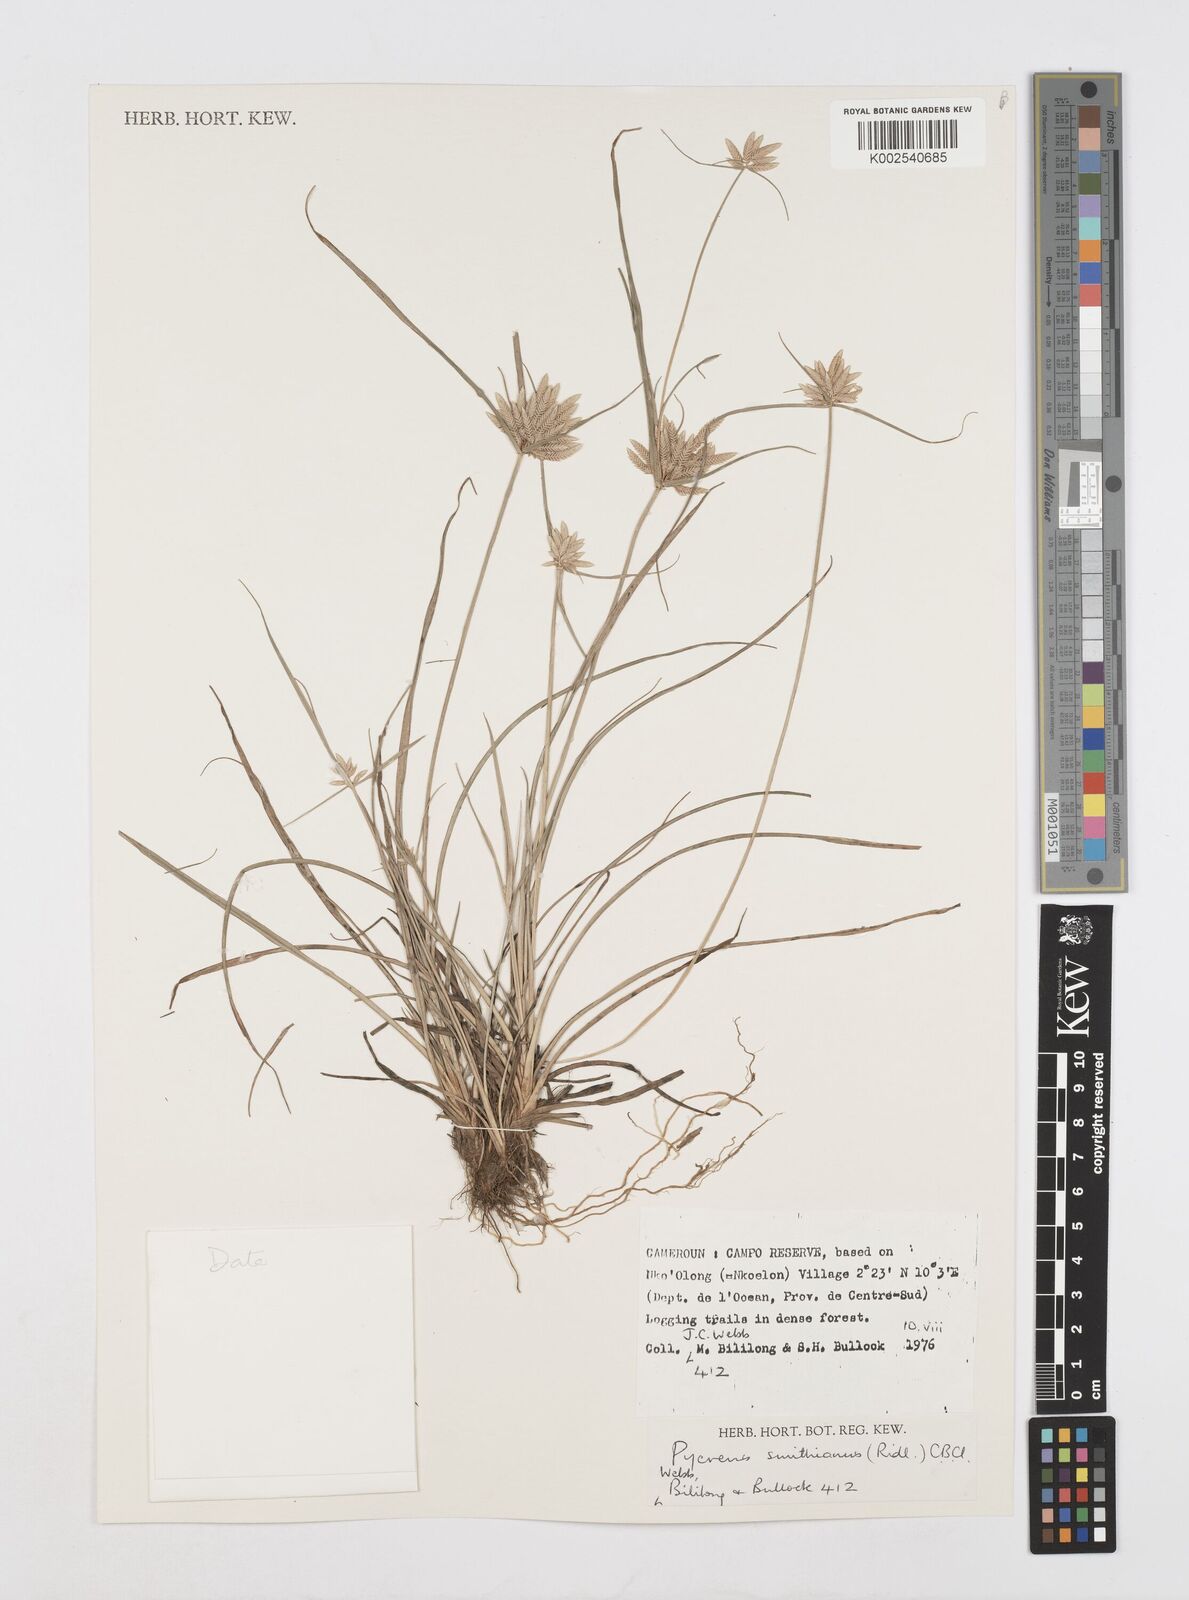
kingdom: Plantae
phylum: Tracheophyta
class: Liliopsida
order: Poales
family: Cyperaceae
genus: Cyperus
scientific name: Cyperus smithianus
